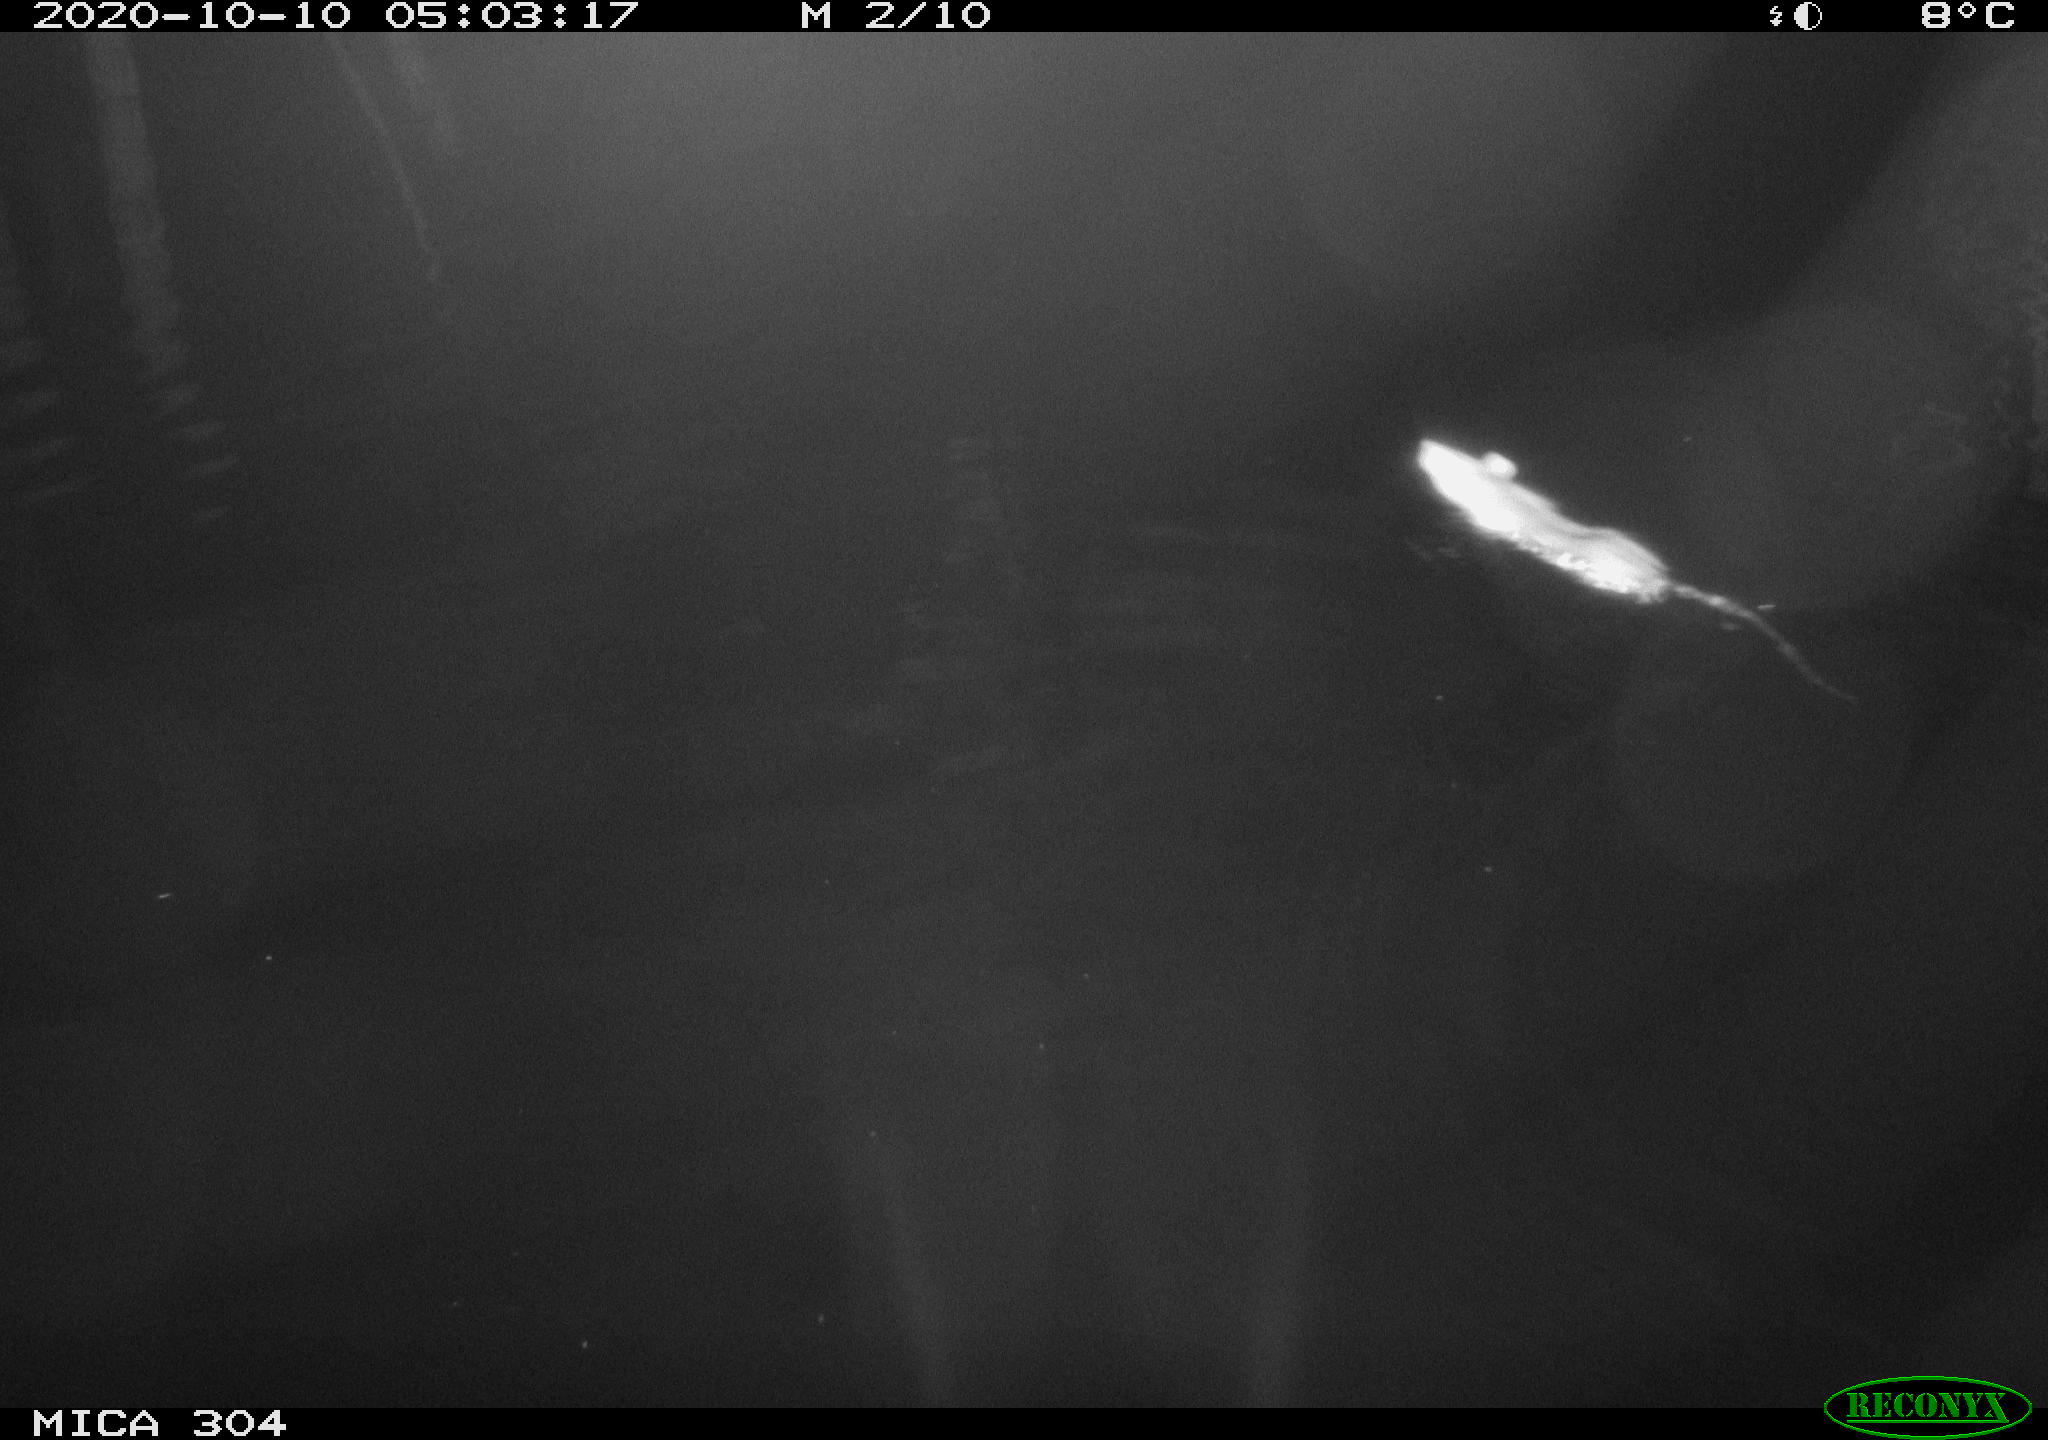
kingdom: Animalia
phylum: Chordata
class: Mammalia
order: Rodentia
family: Muridae
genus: Rattus
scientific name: Rattus norvegicus
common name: Brown rat
